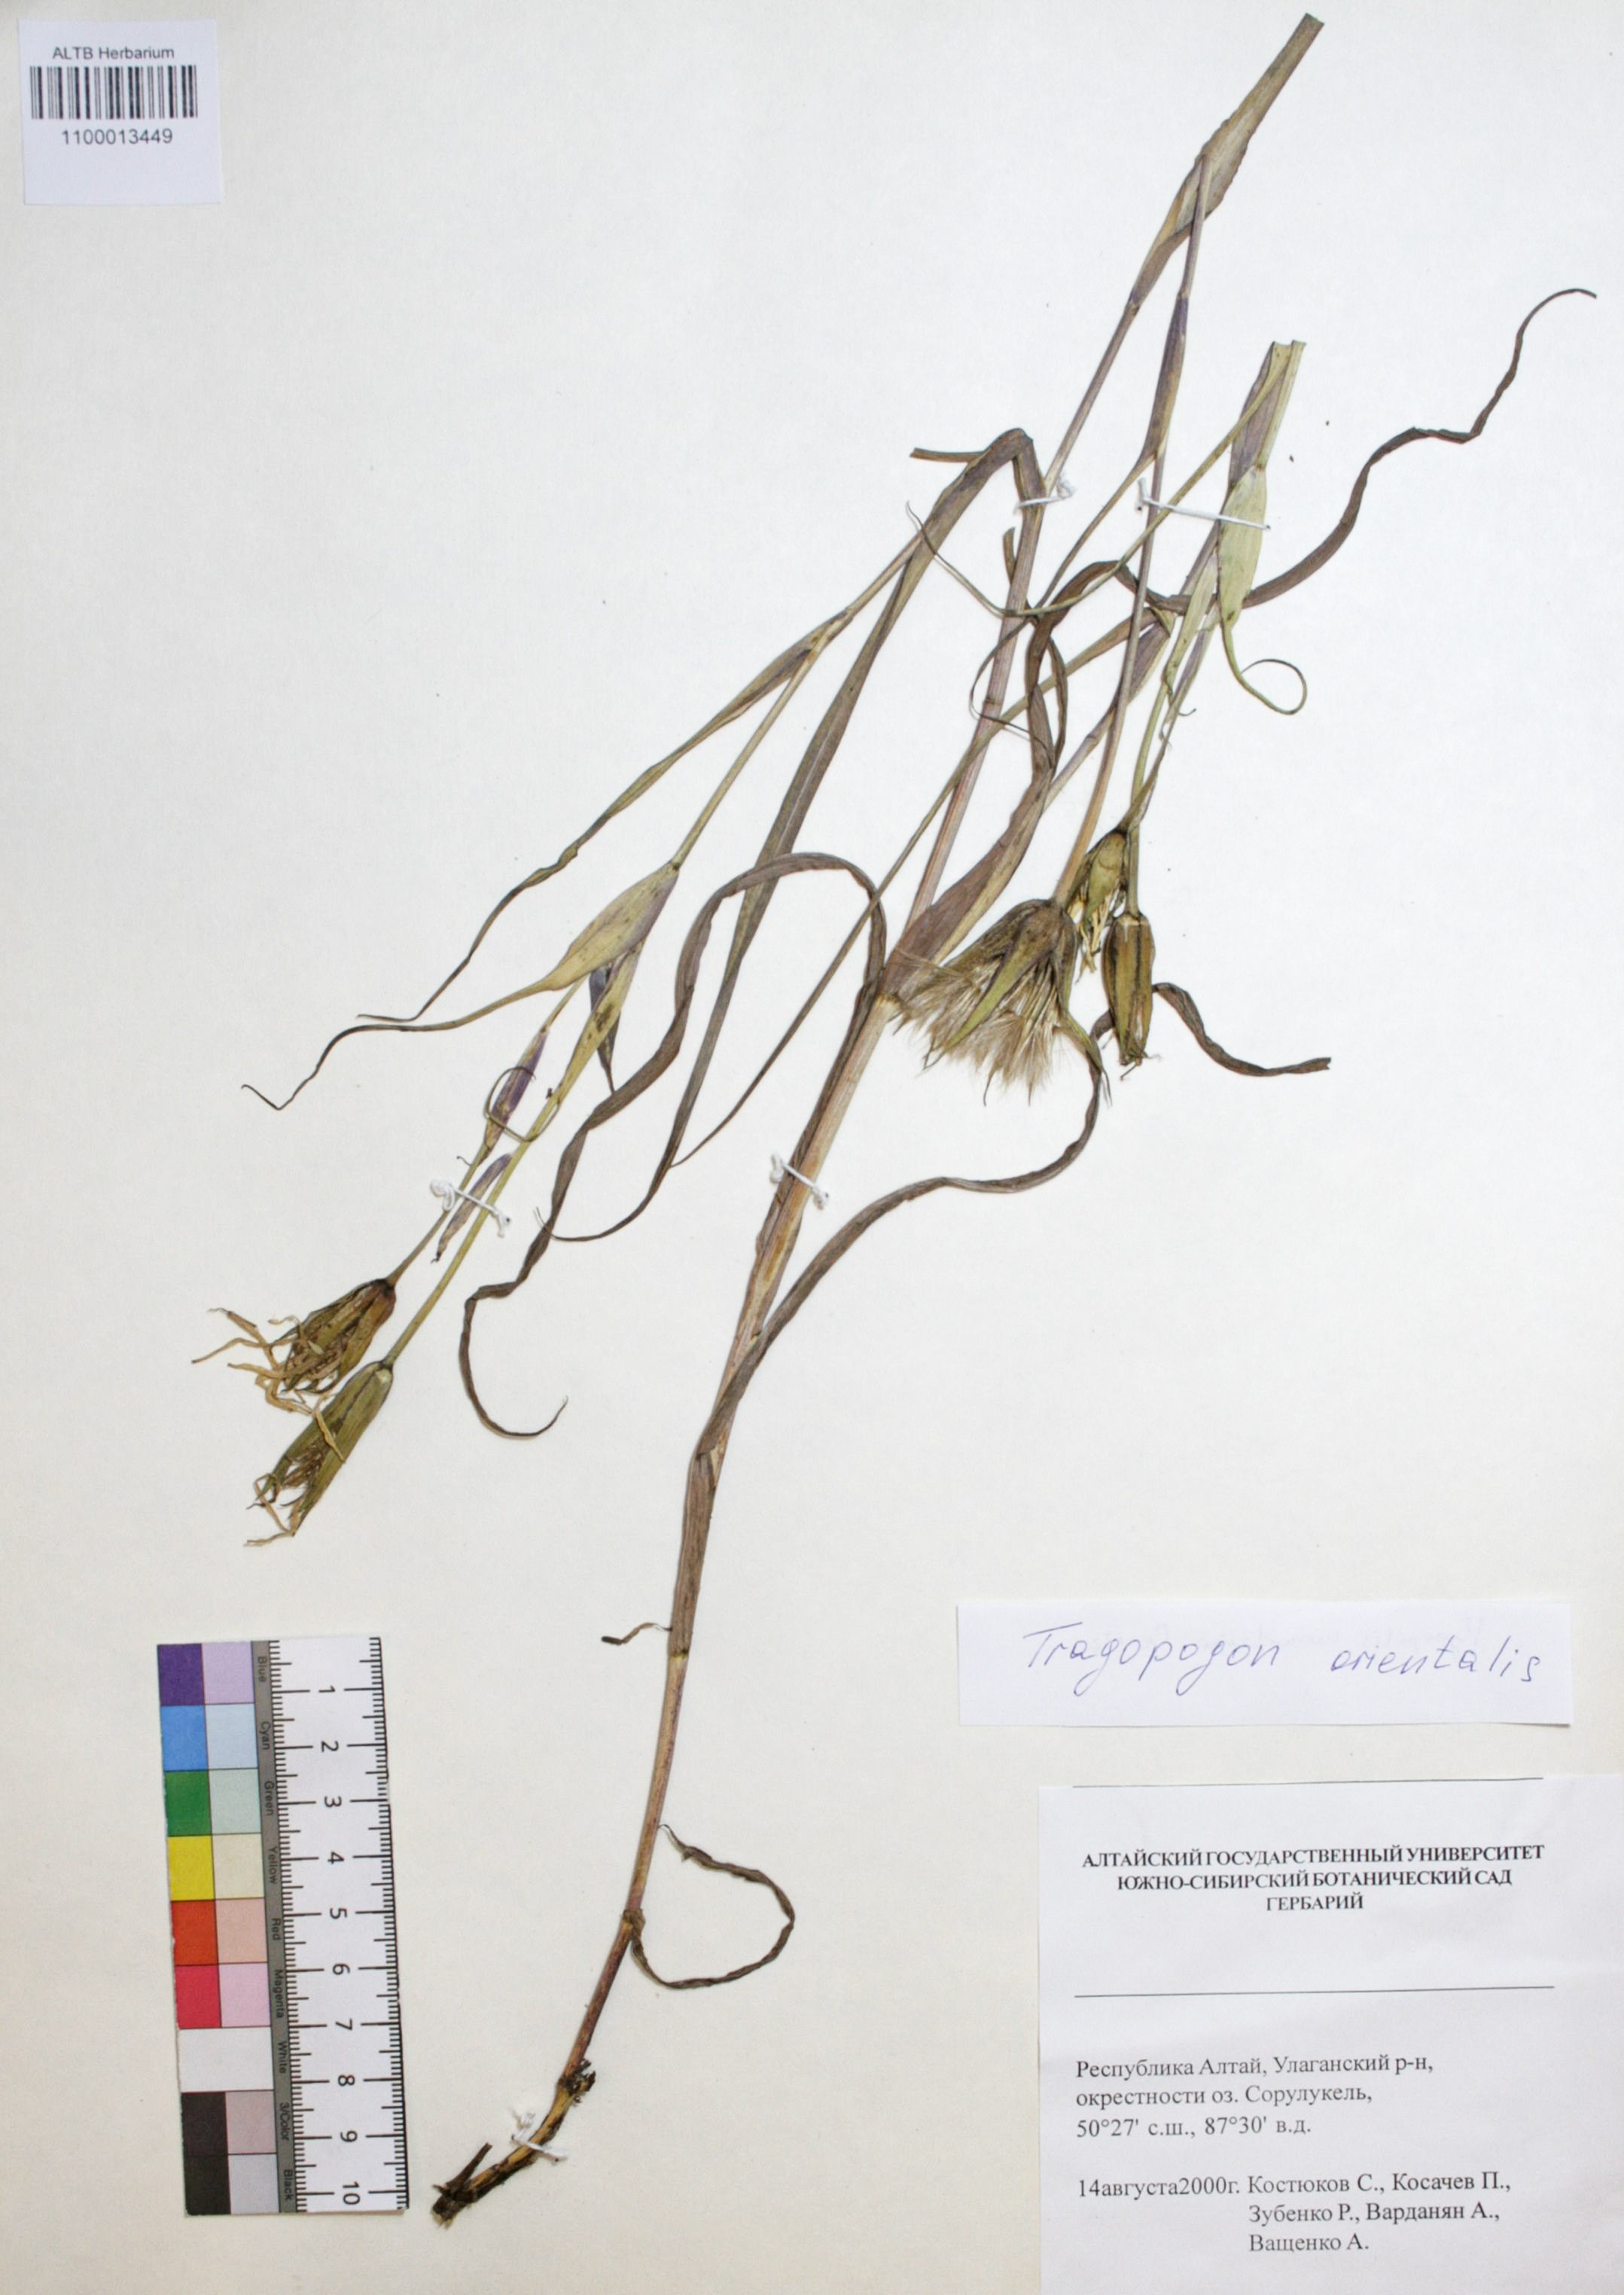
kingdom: Plantae
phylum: Tracheophyta
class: Magnoliopsida
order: Asterales
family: Asteraceae
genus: Tragopogon
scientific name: Tragopogon orientalis
